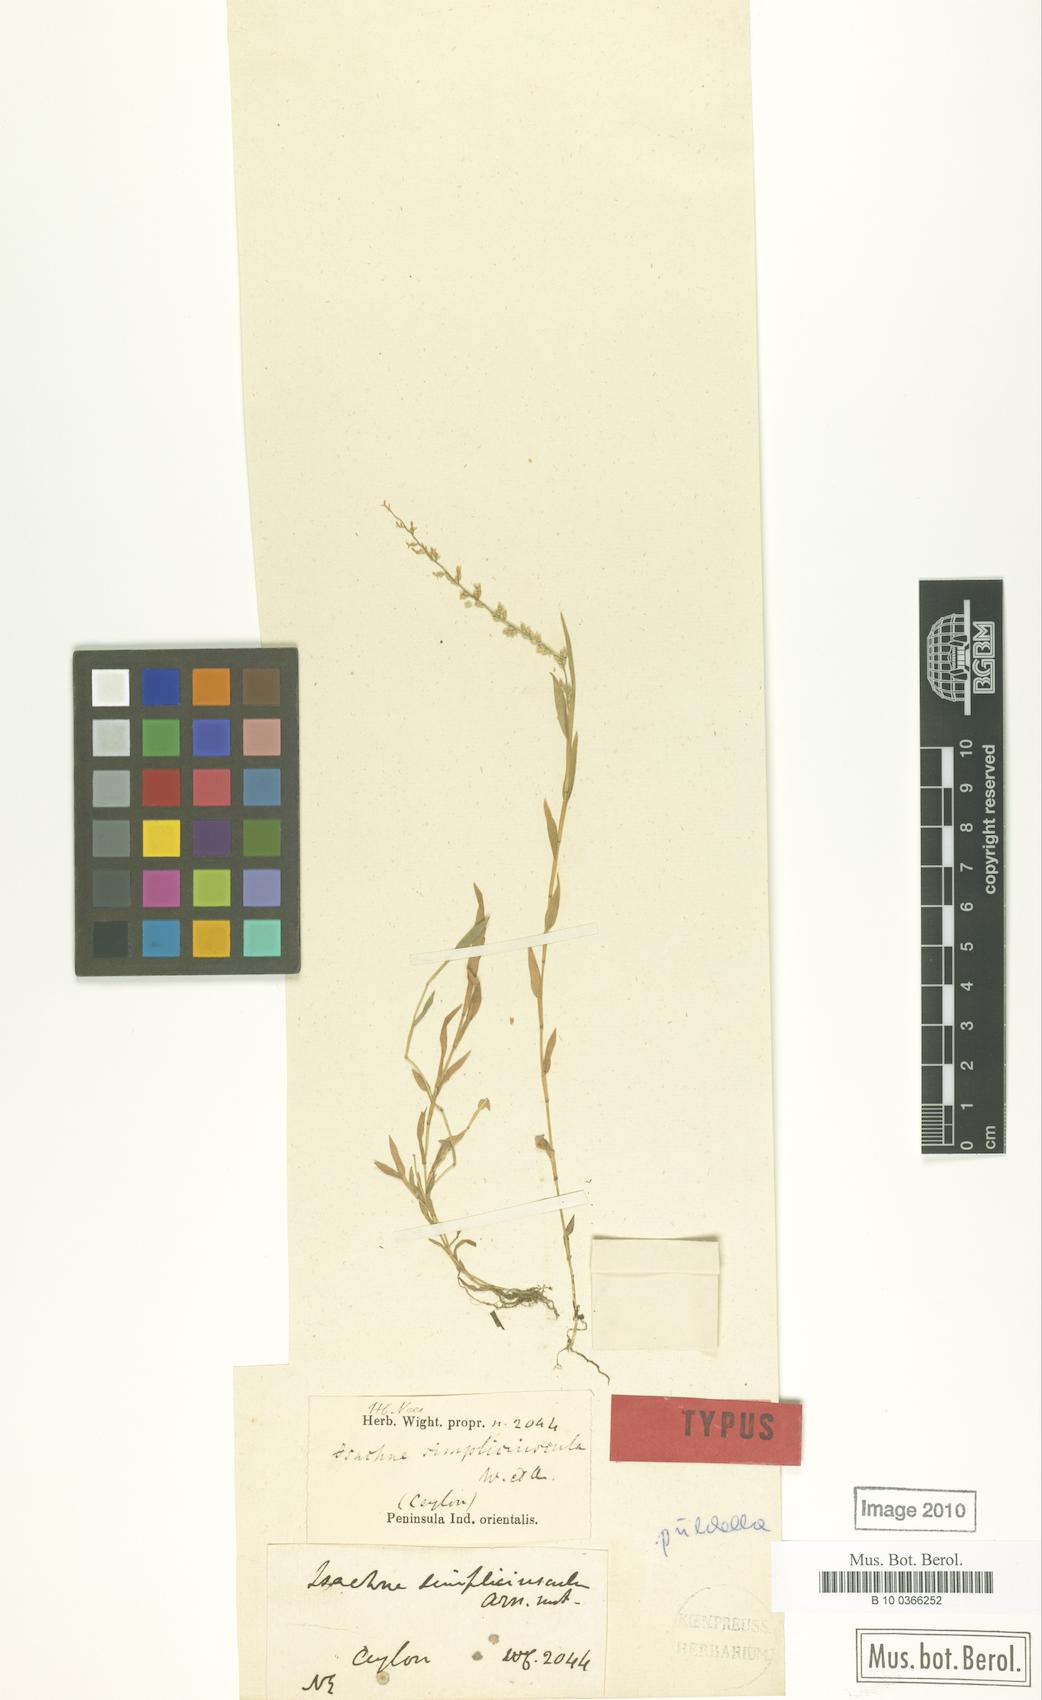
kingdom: Plantae
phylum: Tracheophyta
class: Liliopsida
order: Poales
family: Poaceae
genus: Coelachne
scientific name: Coelachne simpliciuscula
